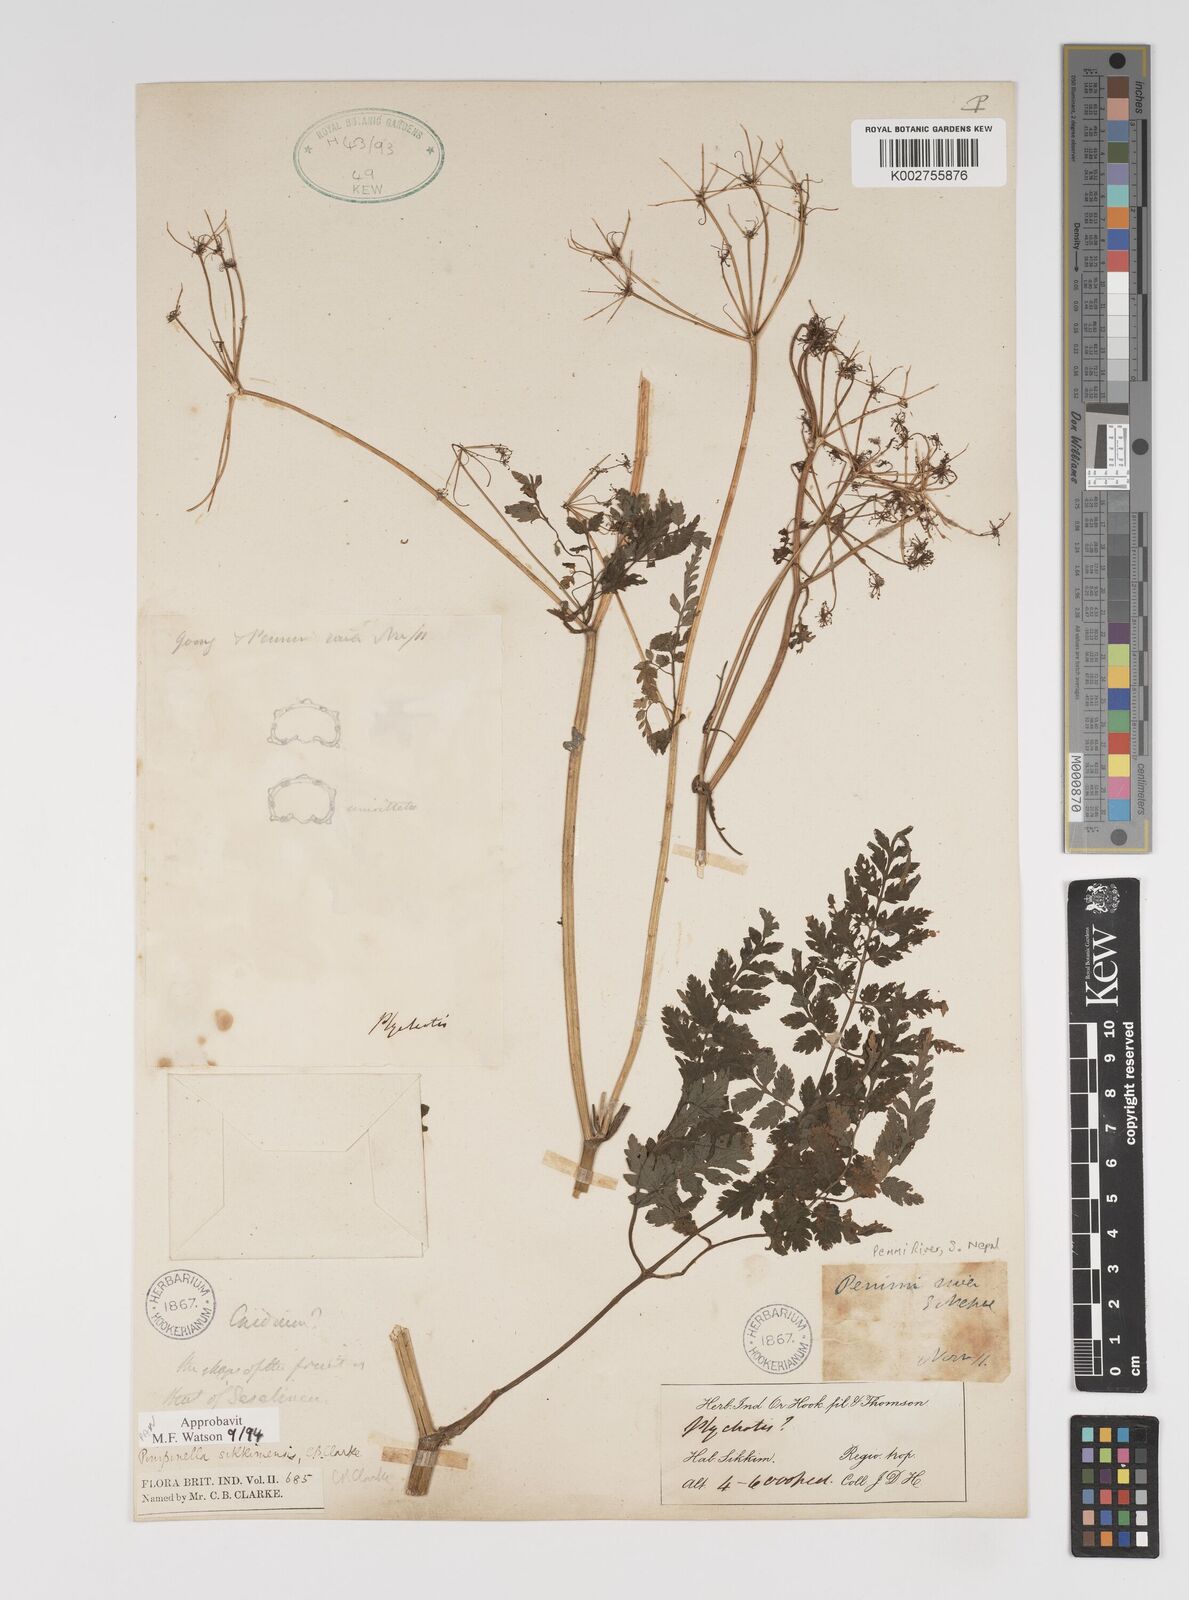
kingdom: Plantae
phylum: Tracheophyta
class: Magnoliopsida
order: Apiales
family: Apiaceae
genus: Pimpinella
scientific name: Pimpinella sikkimensis
